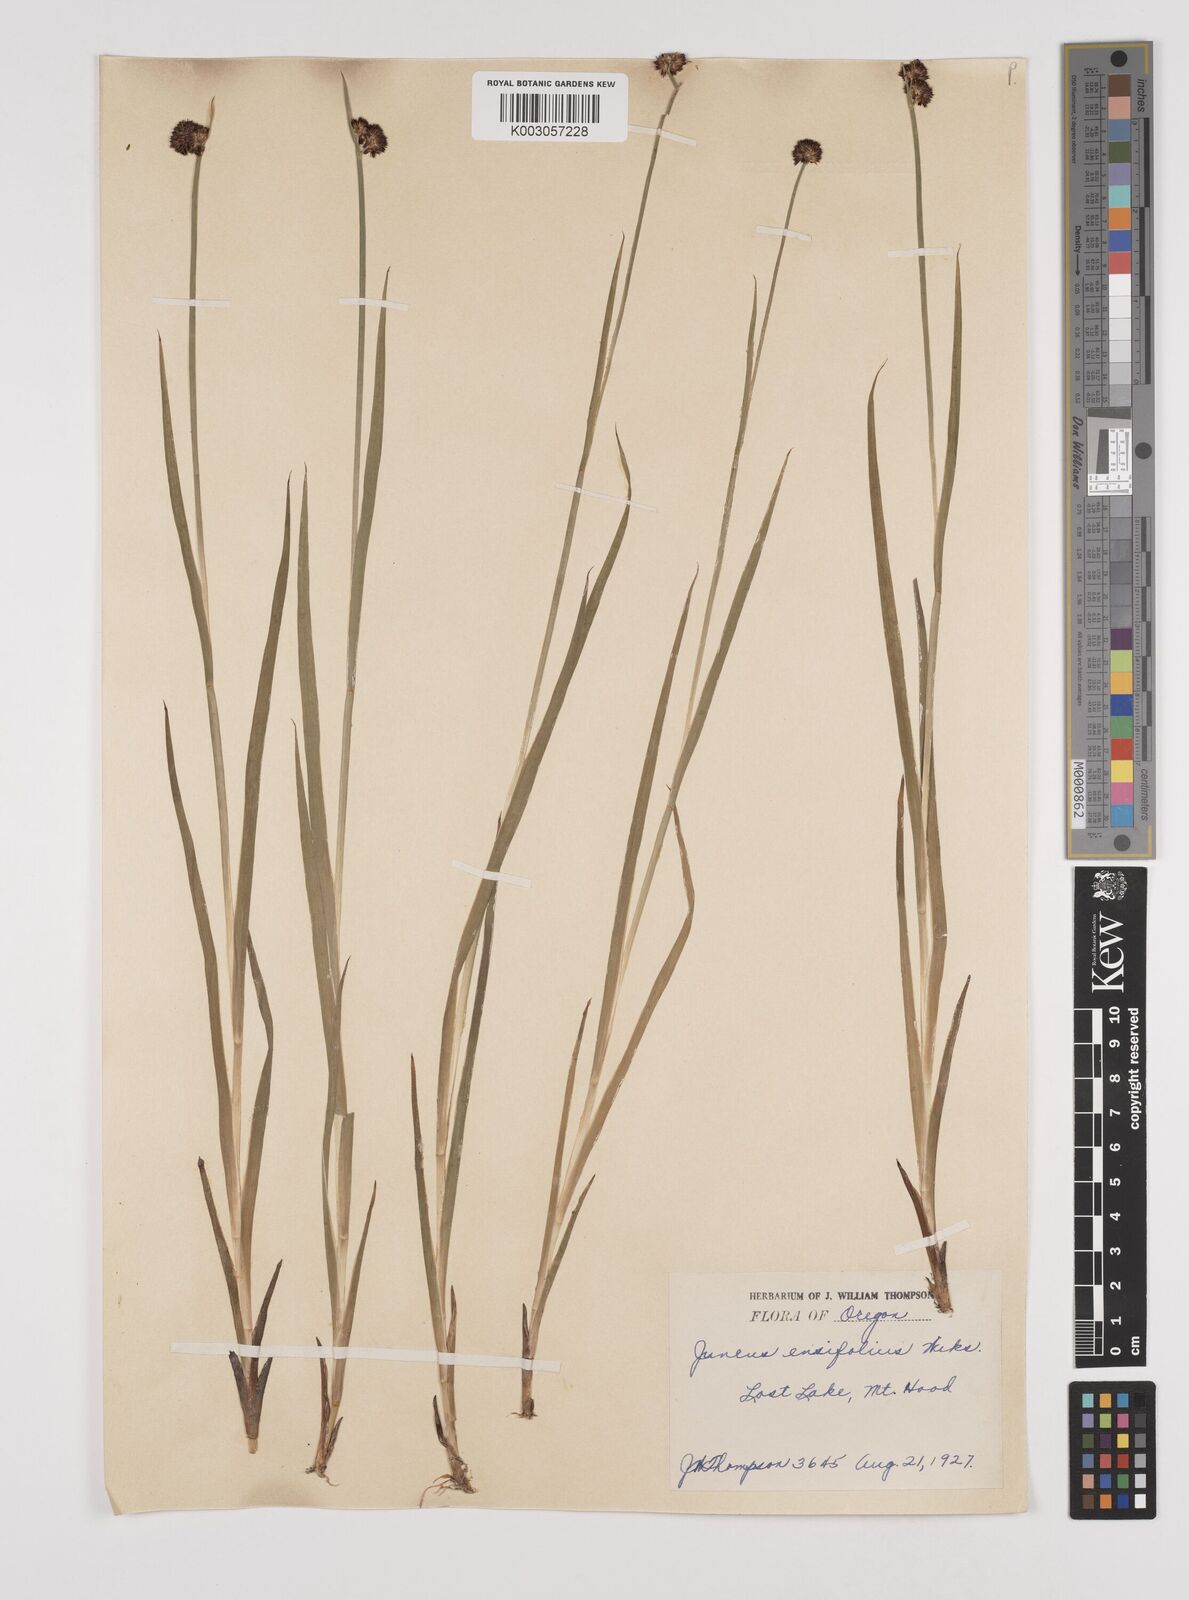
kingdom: Plantae
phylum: Tracheophyta
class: Liliopsida
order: Poales
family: Juncaceae
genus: Juncus
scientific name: Juncus ensifolius
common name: Sword-leaved rush
